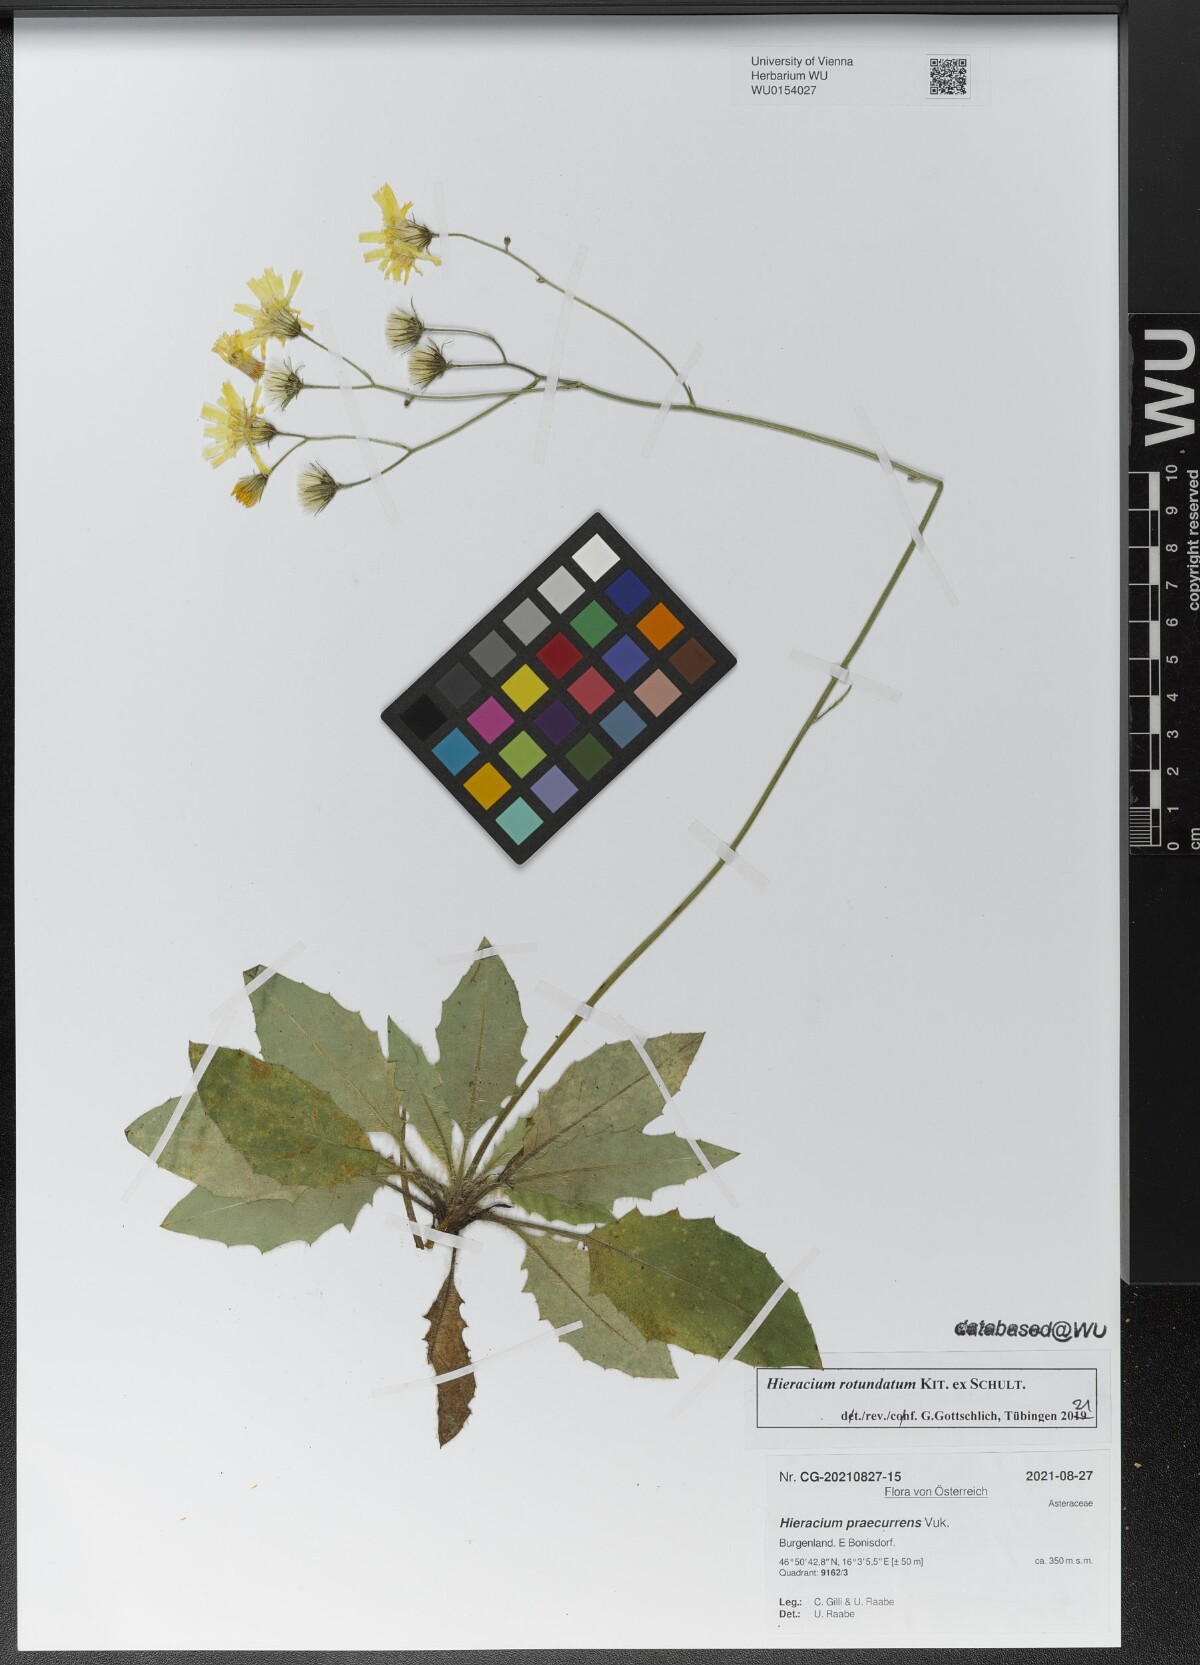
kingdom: Plantae
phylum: Tracheophyta
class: Magnoliopsida
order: Asterales
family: Asteraceae
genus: Hieracium
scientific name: Hieracium rotundatum
